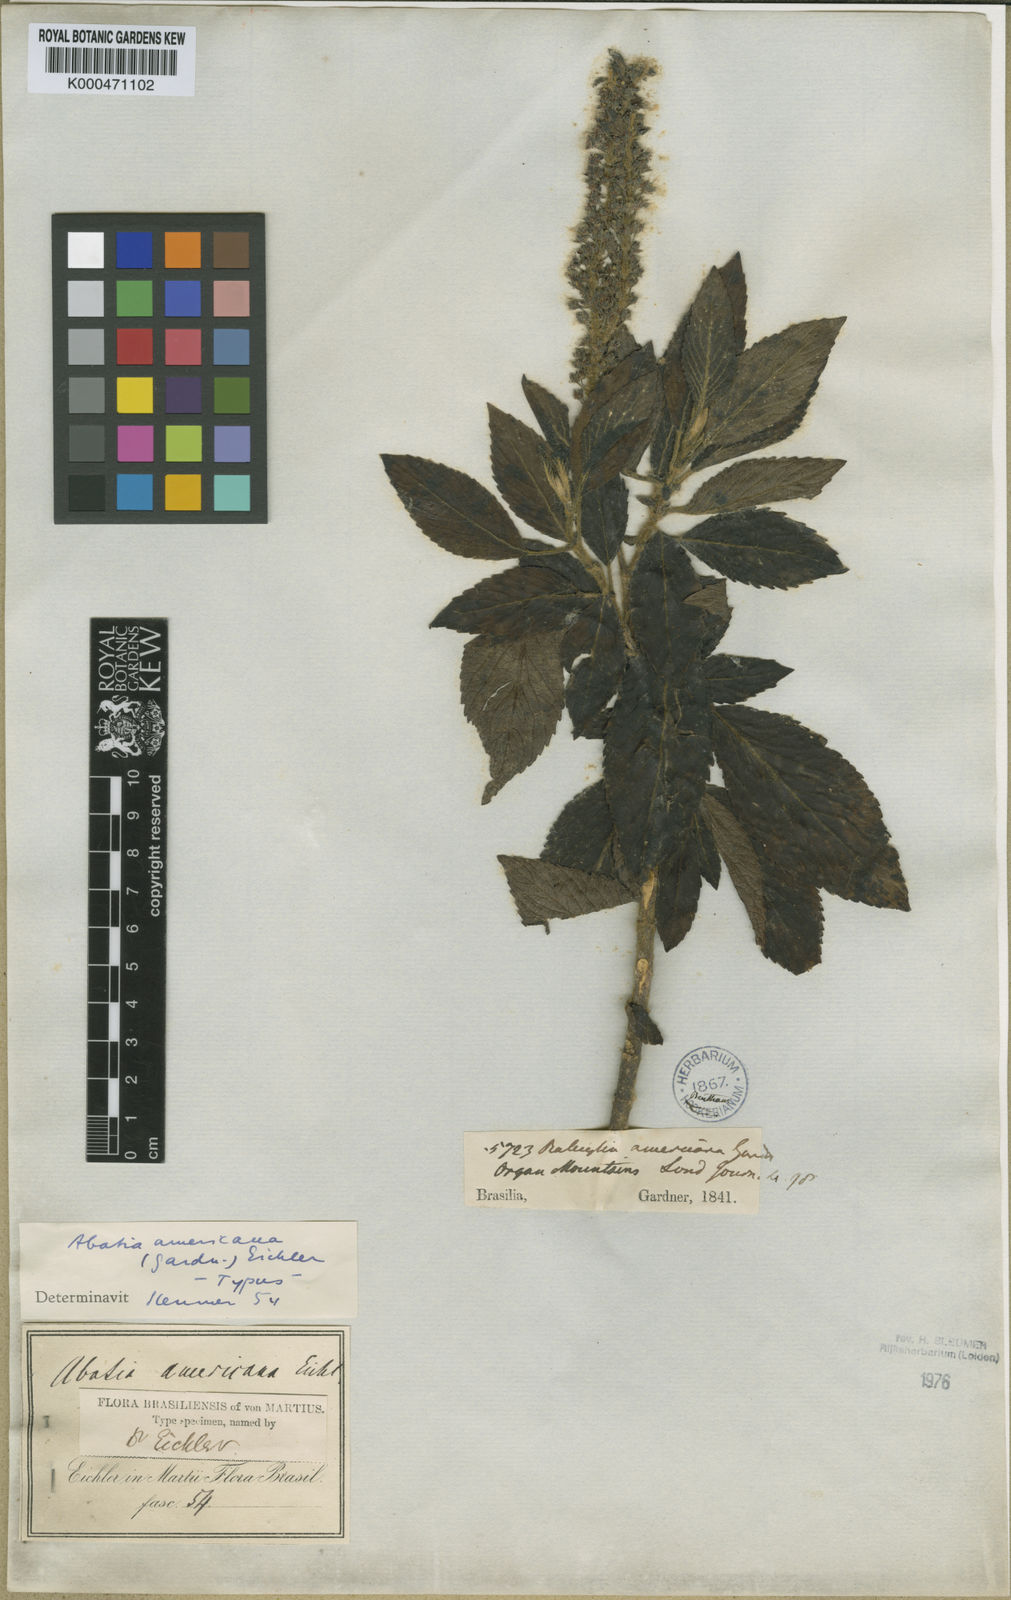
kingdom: Plantae
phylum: Tracheophyta
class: Magnoliopsida
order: Malpighiales
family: Salicaceae
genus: Abatia
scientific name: Abatia americana
